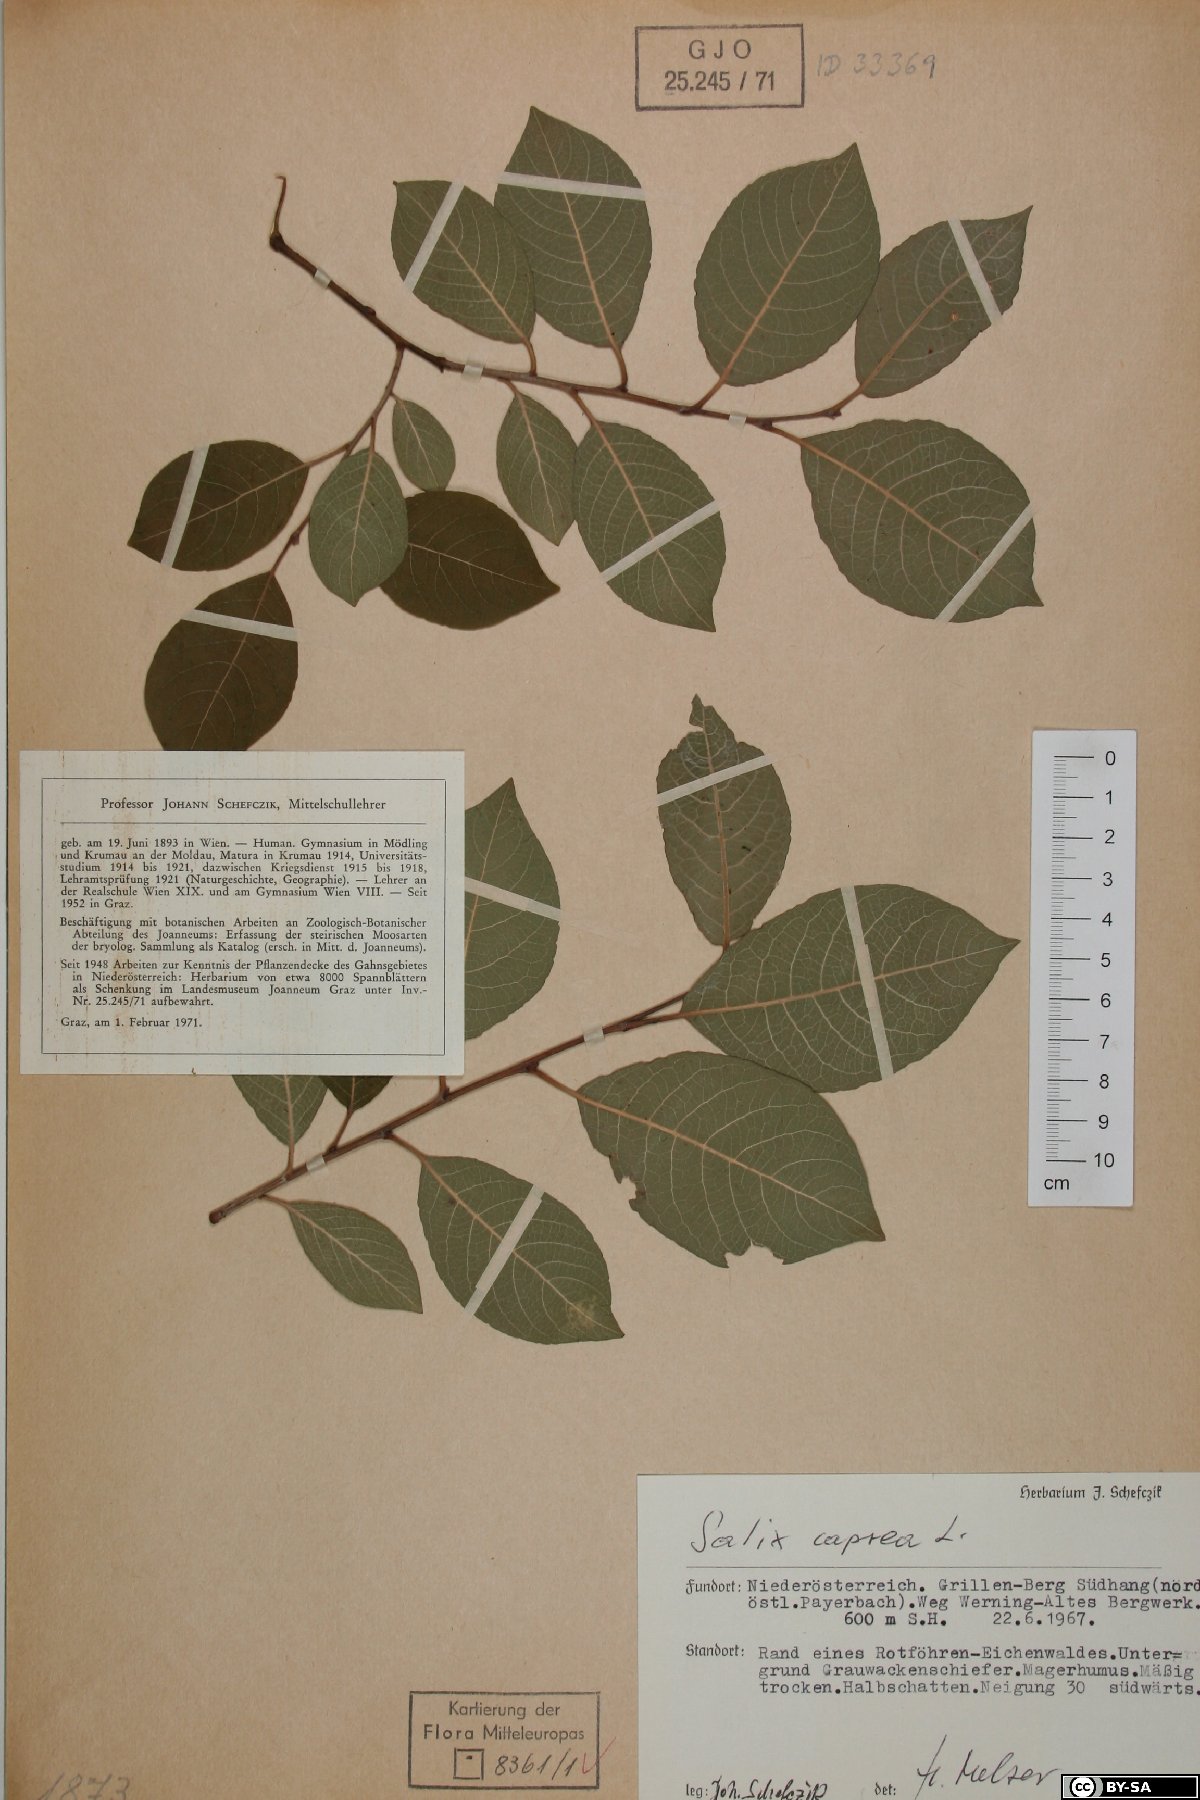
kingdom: Plantae
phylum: Tracheophyta
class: Magnoliopsida
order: Malpighiales
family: Salicaceae
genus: Salix
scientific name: Salix caprea
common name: Goat willow
